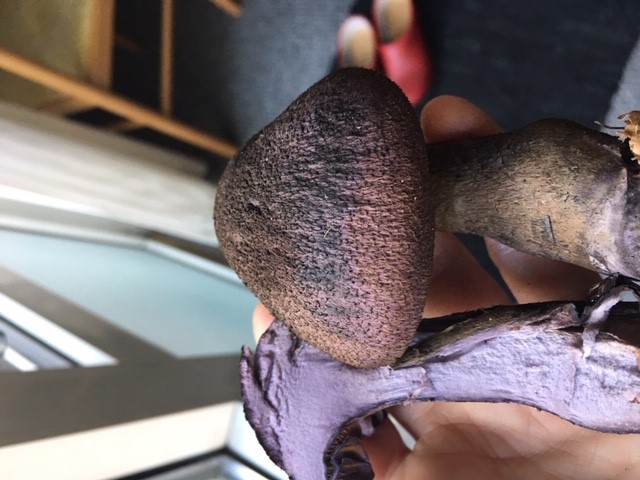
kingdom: Fungi
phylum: Basidiomycota
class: Agaricomycetes
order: Agaricales
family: Cortinariaceae
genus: Cortinarius
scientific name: Cortinarius violaceus
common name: mørkviolet slørhat
